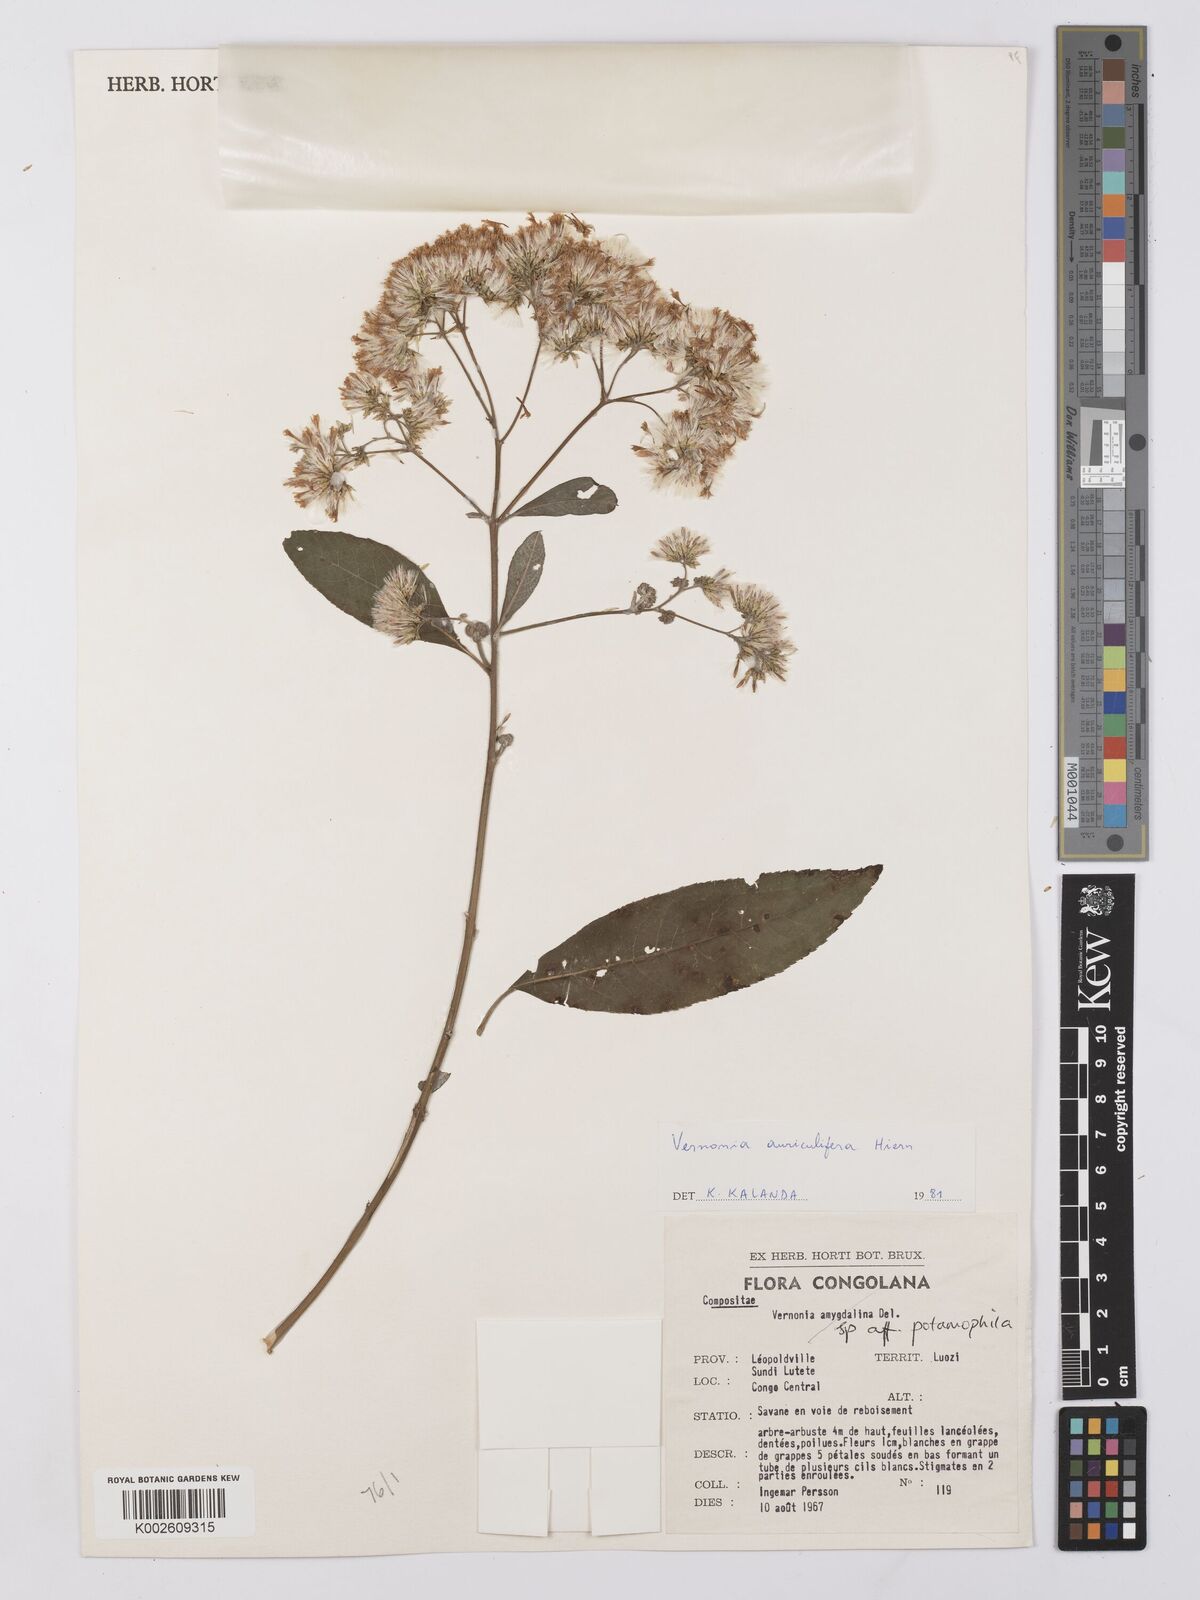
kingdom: Plantae
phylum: Tracheophyta
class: Magnoliopsida
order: Asterales
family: Asteraceae
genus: Gymnanthemum
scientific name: Gymnanthemum auriculiferum
